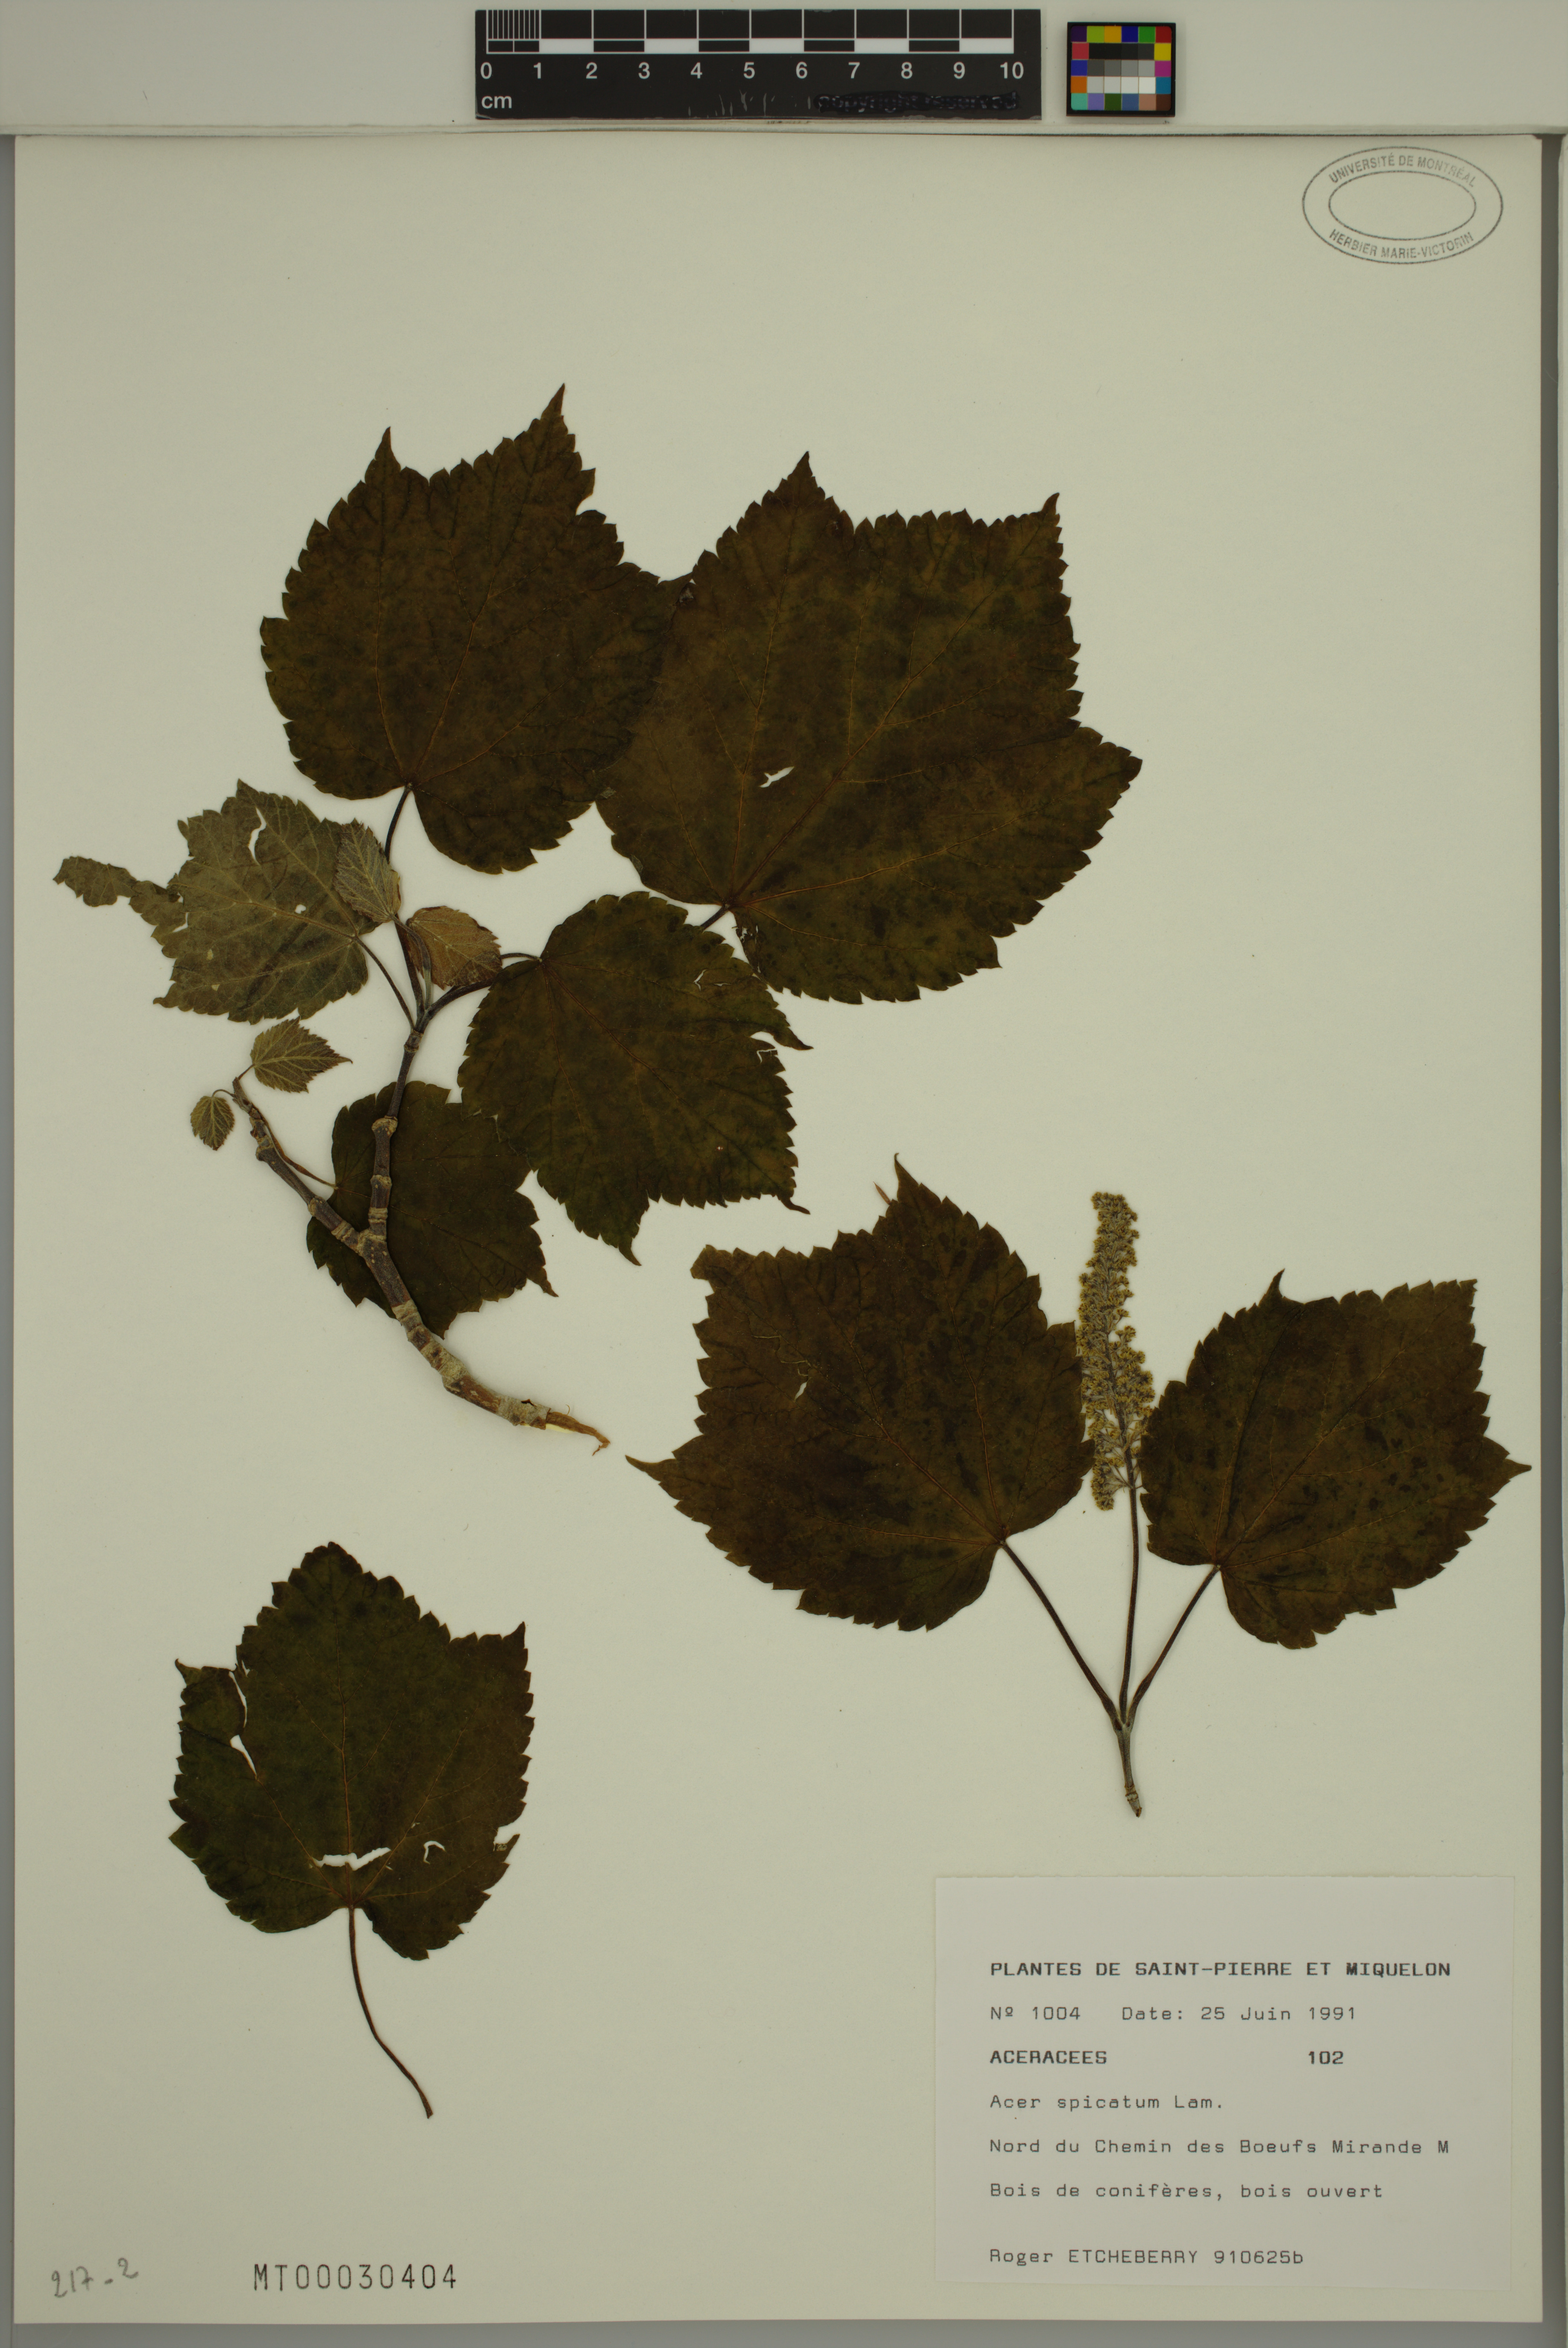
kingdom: Plantae
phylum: Tracheophyta
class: Magnoliopsida
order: Sapindales
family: Sapindaceae
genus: Acer
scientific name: Acer spicatum
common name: Mountain maple
